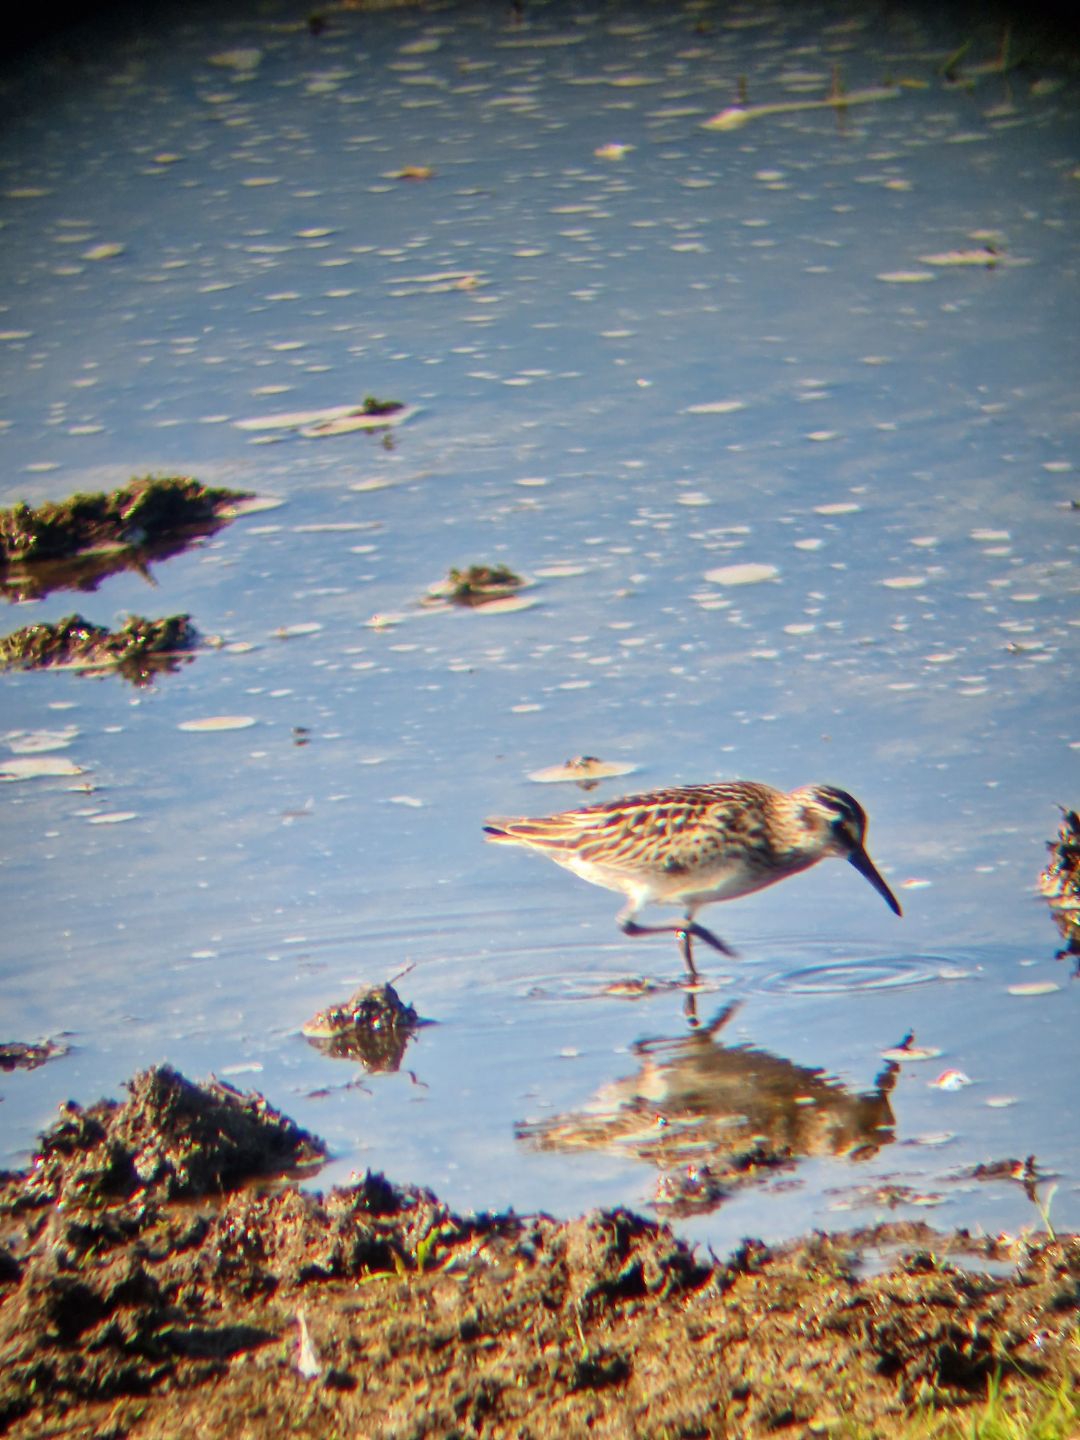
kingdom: Animalia
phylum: Chordata
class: Aves
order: Charadriiformes
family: Scolopacidae
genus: Calidris
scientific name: Calidris falcinellus
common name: Kærløber
